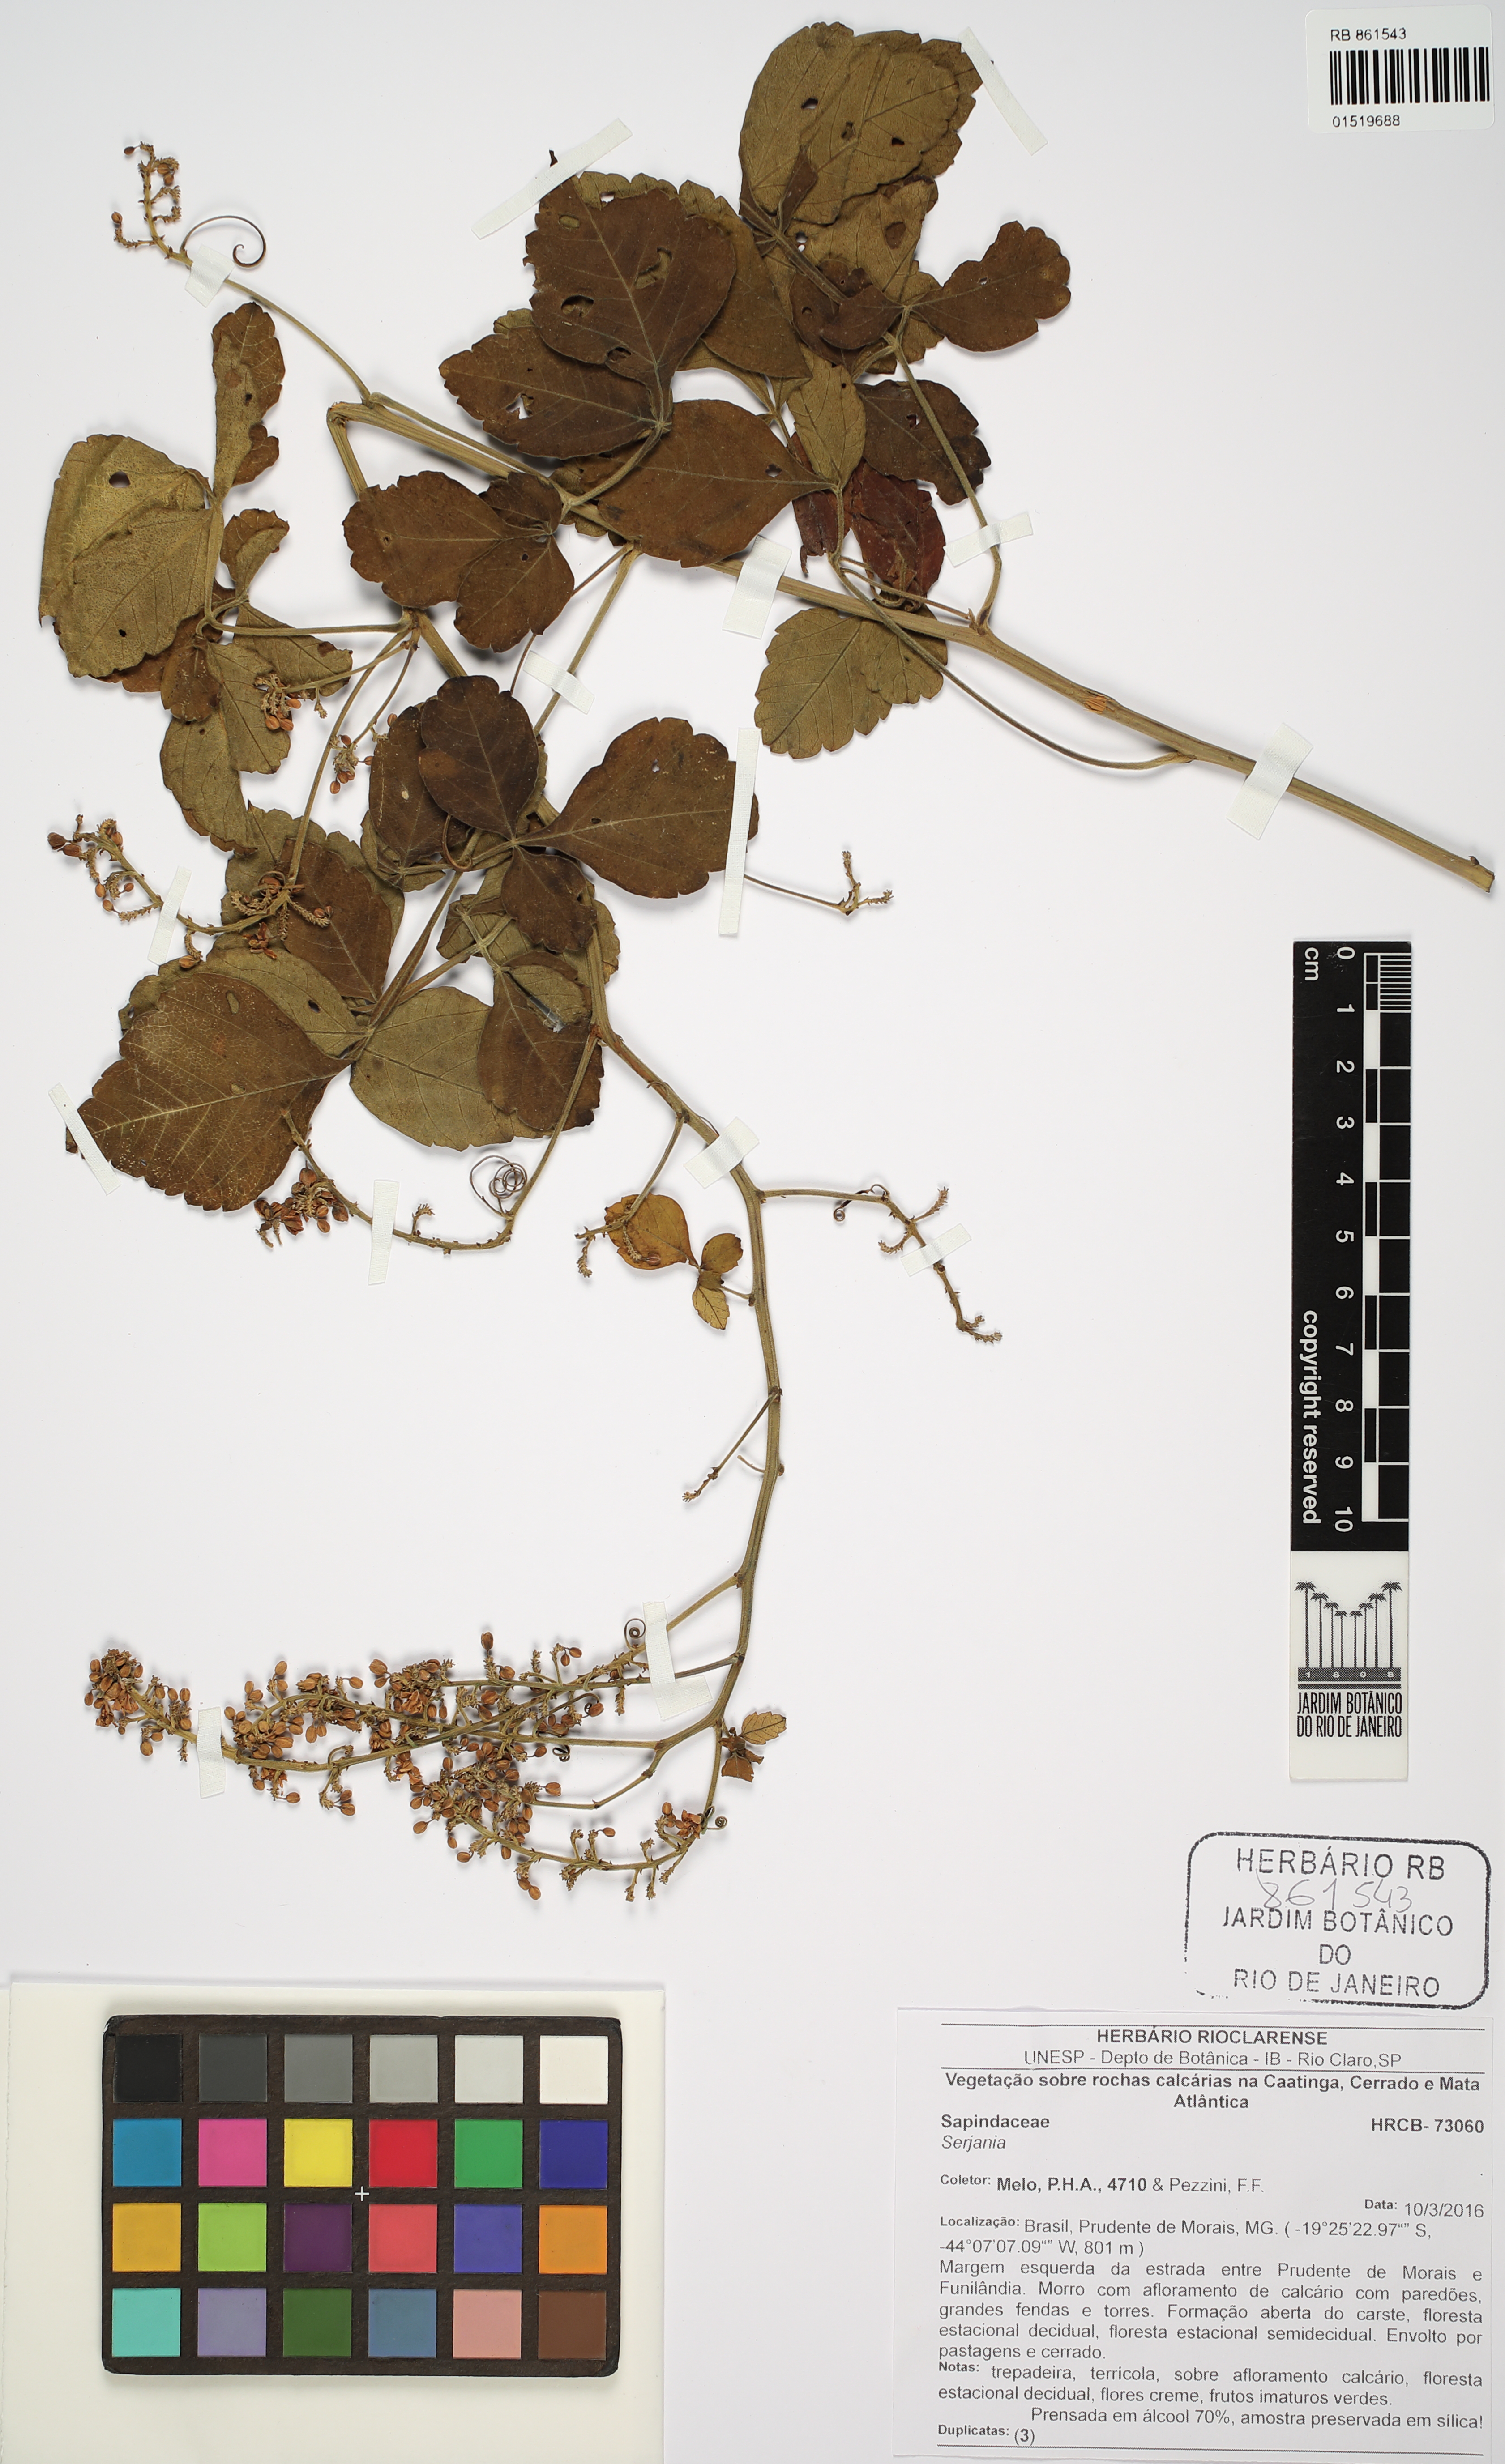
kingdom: Plantae
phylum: Tracheophyta
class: Magnoliopsida
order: Sapindales
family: Sapindaceae
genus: Serjania
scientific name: Serjania
